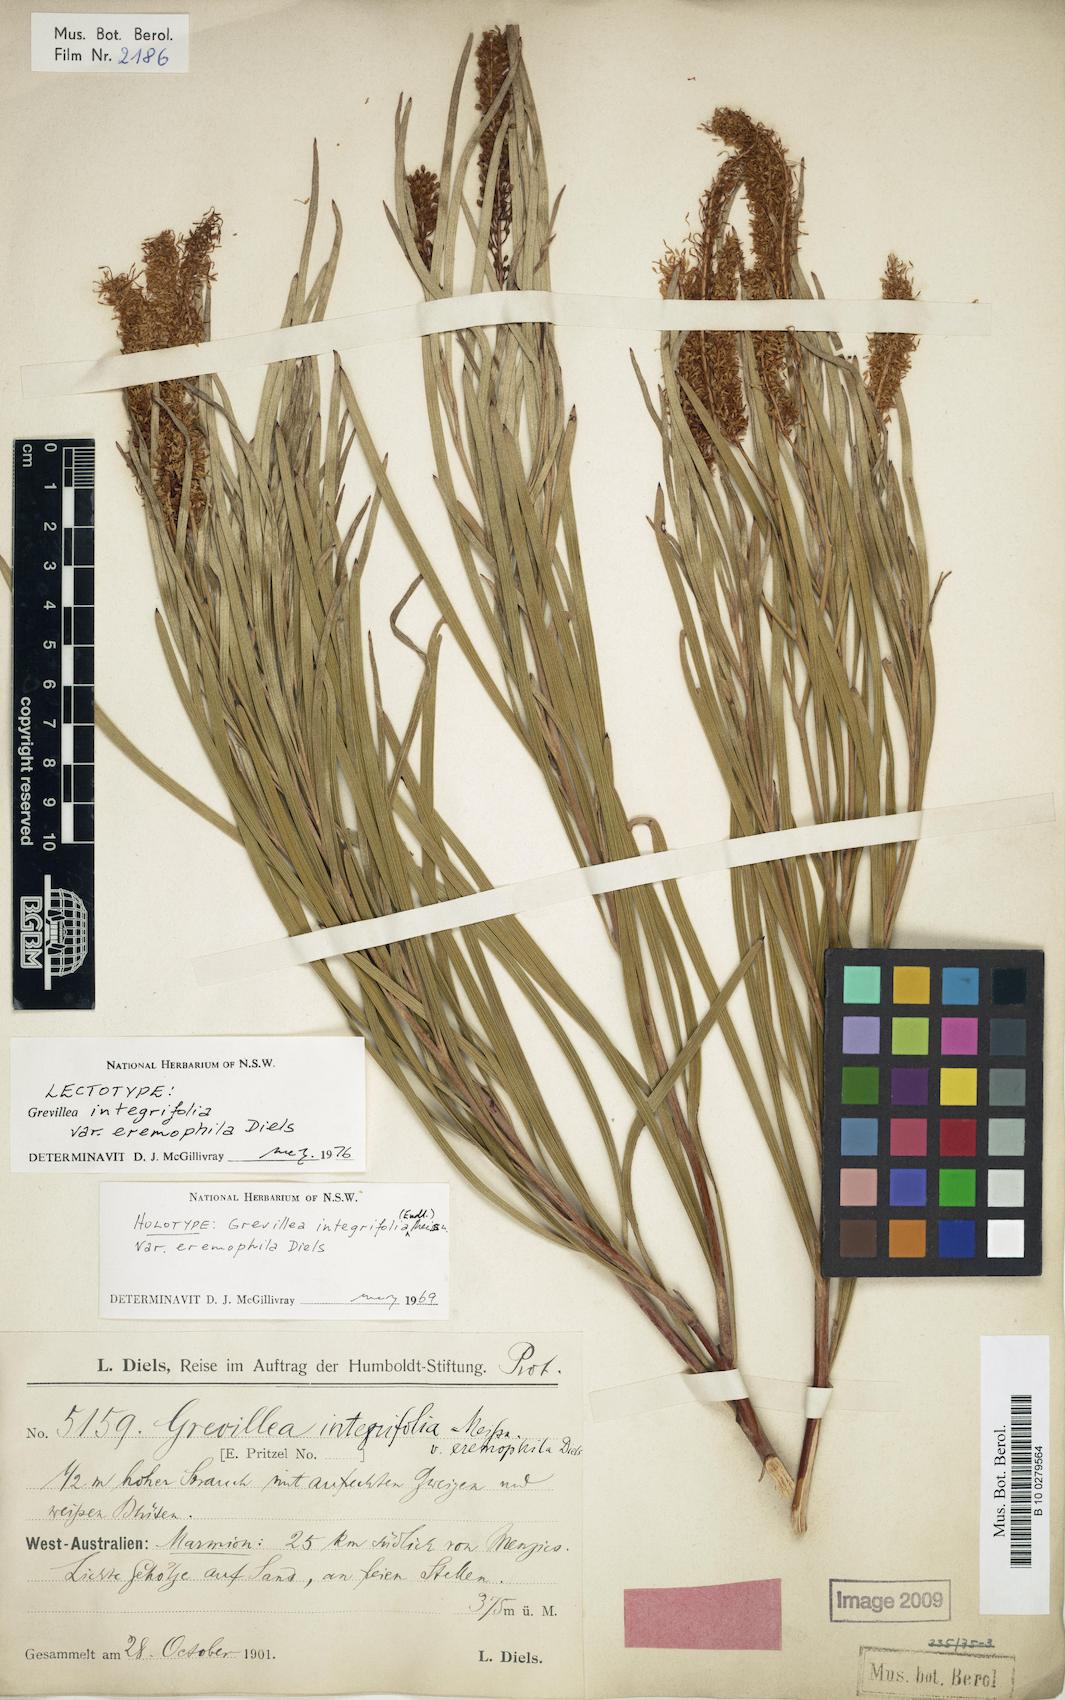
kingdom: Plantae
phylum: Tracheophyta
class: Magnoliopsida
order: Proteales
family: Proteaceae
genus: Grevillea
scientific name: Grevillea eremophila
